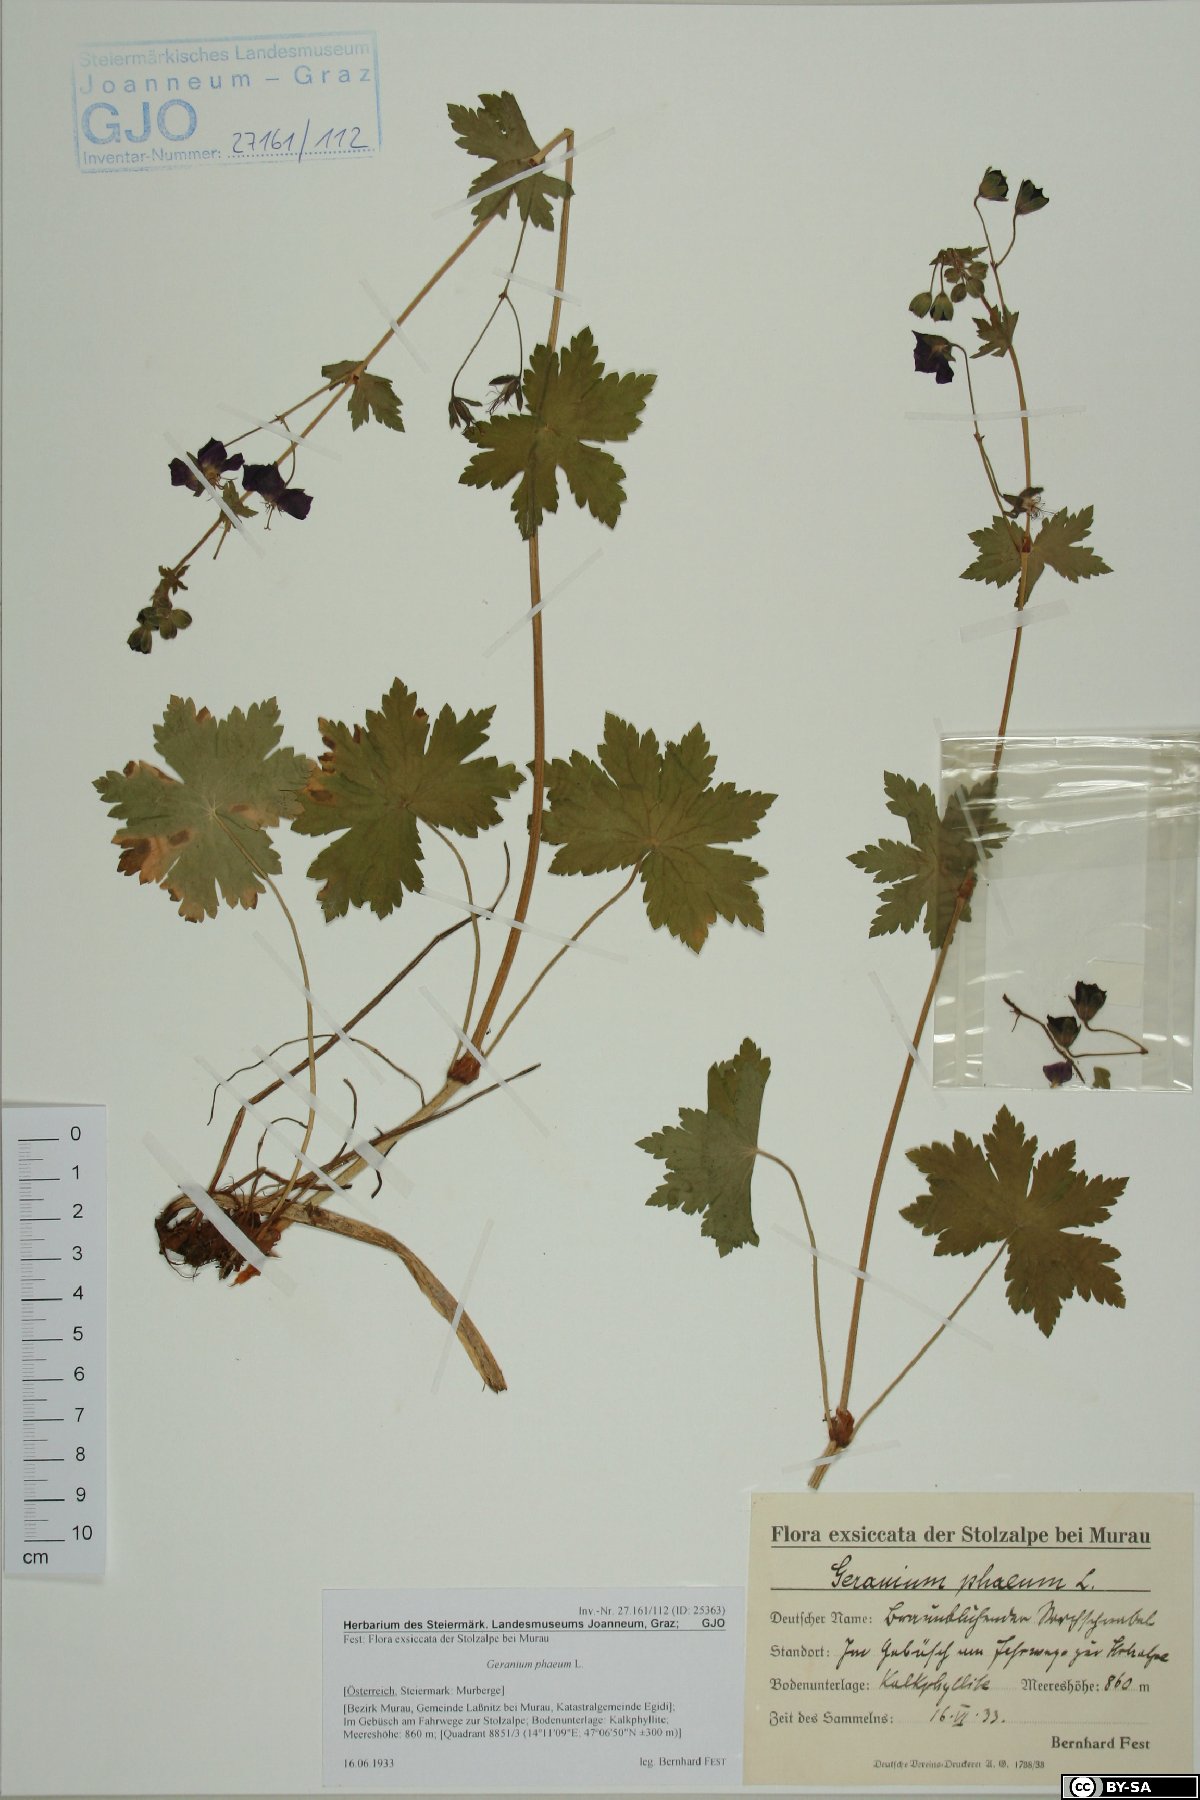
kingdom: Plantae
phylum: Tracheophyta
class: Magnoliopsida
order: Geraniales
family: Geraniaceae
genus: Geranium
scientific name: Geranium phaeum
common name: Dusky crane's-bill
